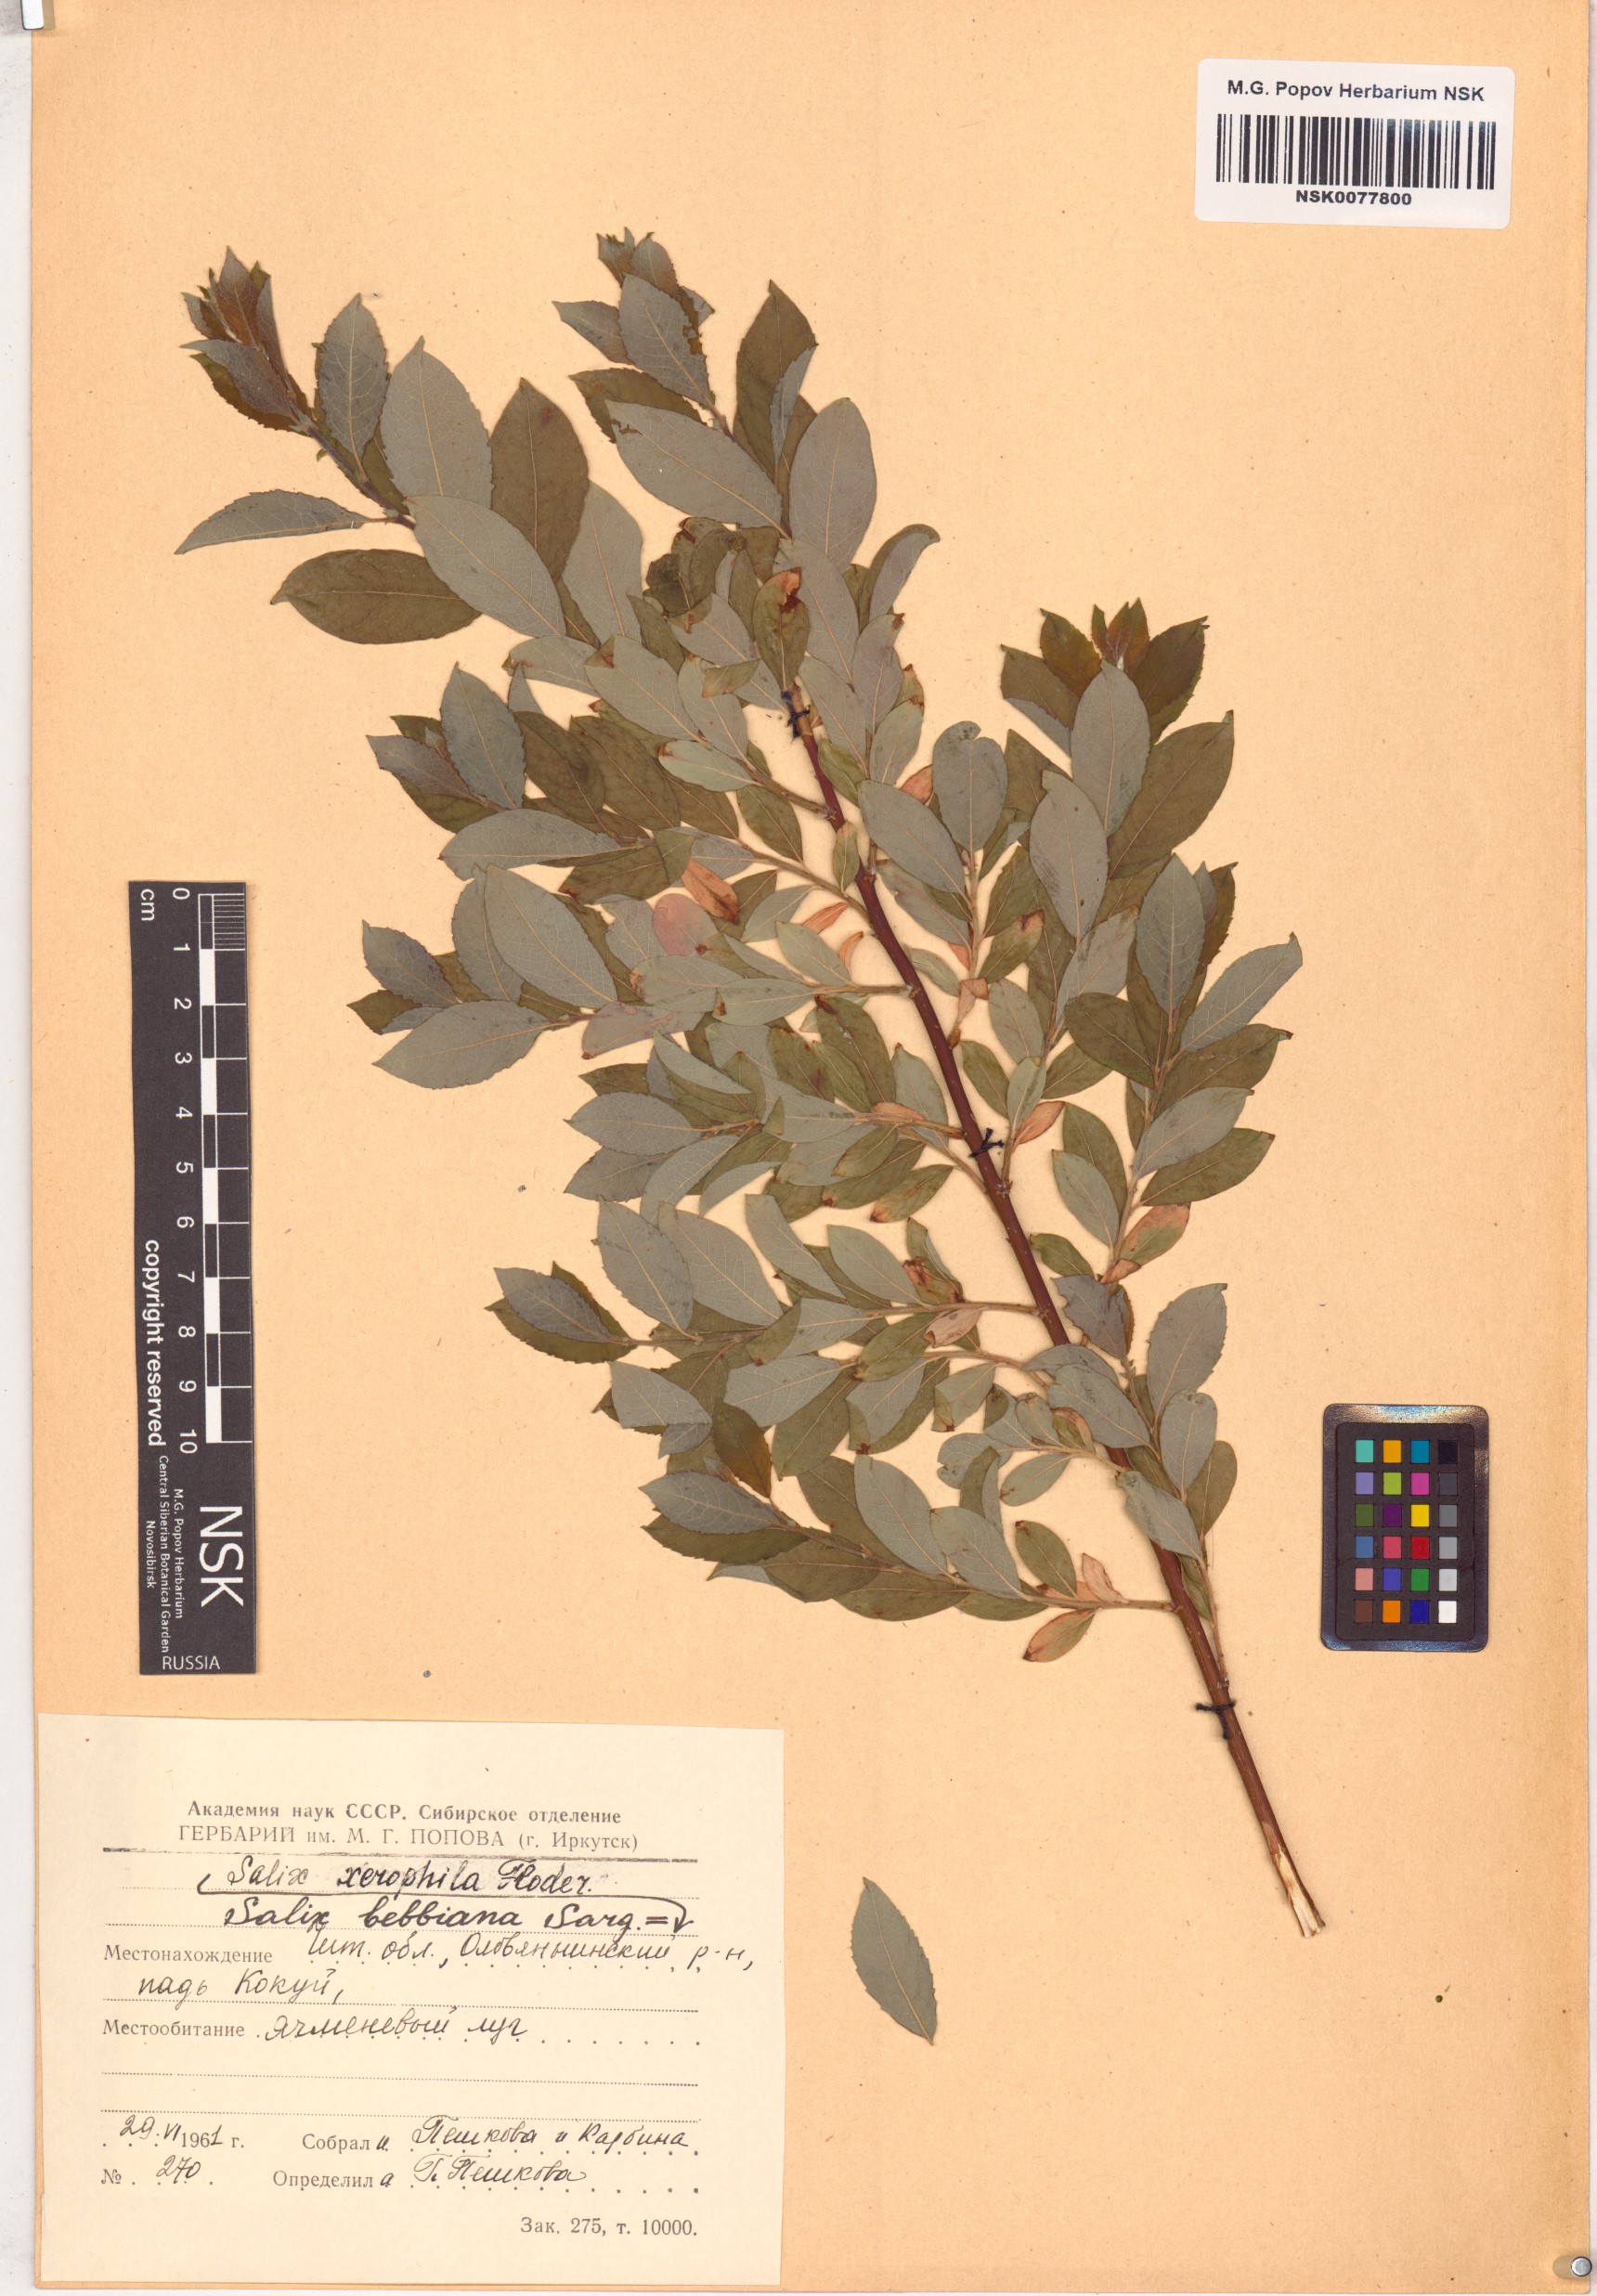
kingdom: Plantae
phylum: Tracheophyta
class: Magnoliopsida
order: Malpighiales
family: Salicaceae
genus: Salix
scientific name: Salix bebbiana
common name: Bebb's willow
